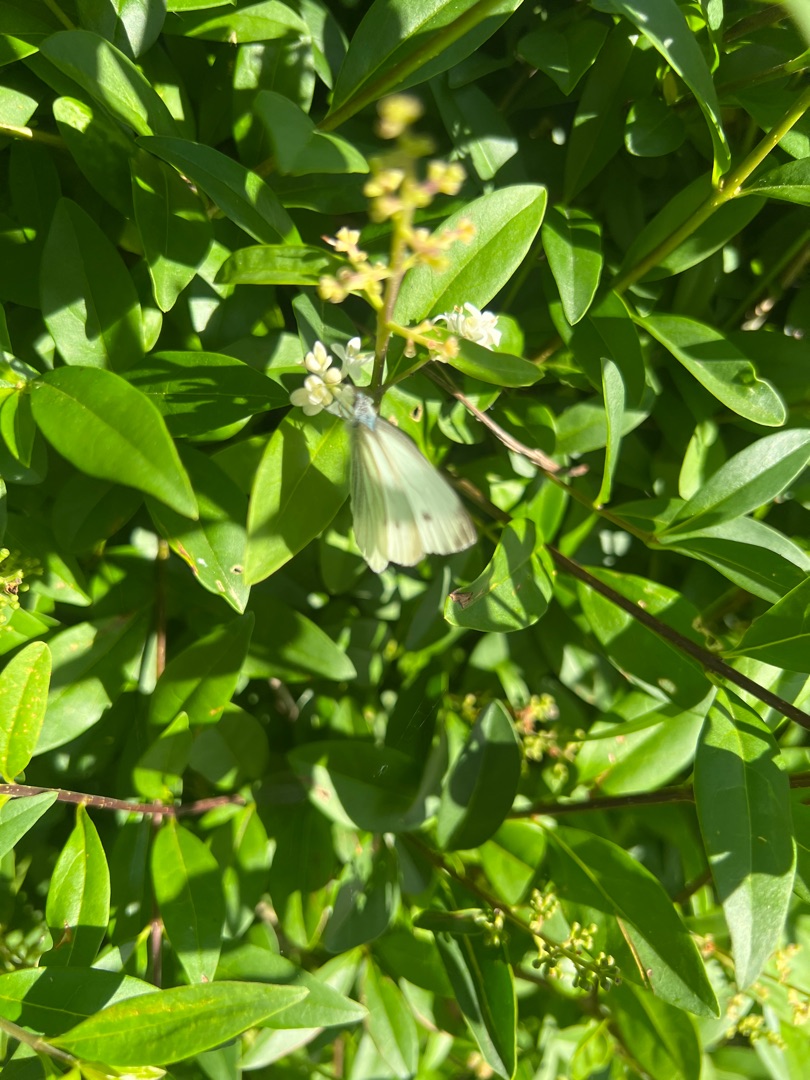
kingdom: Animalia
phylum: Arthropoda
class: Insecta
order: Lepidoptera
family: Pieridae
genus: Pieris
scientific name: Pieris napi
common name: Grønåret kålsommerfugl
